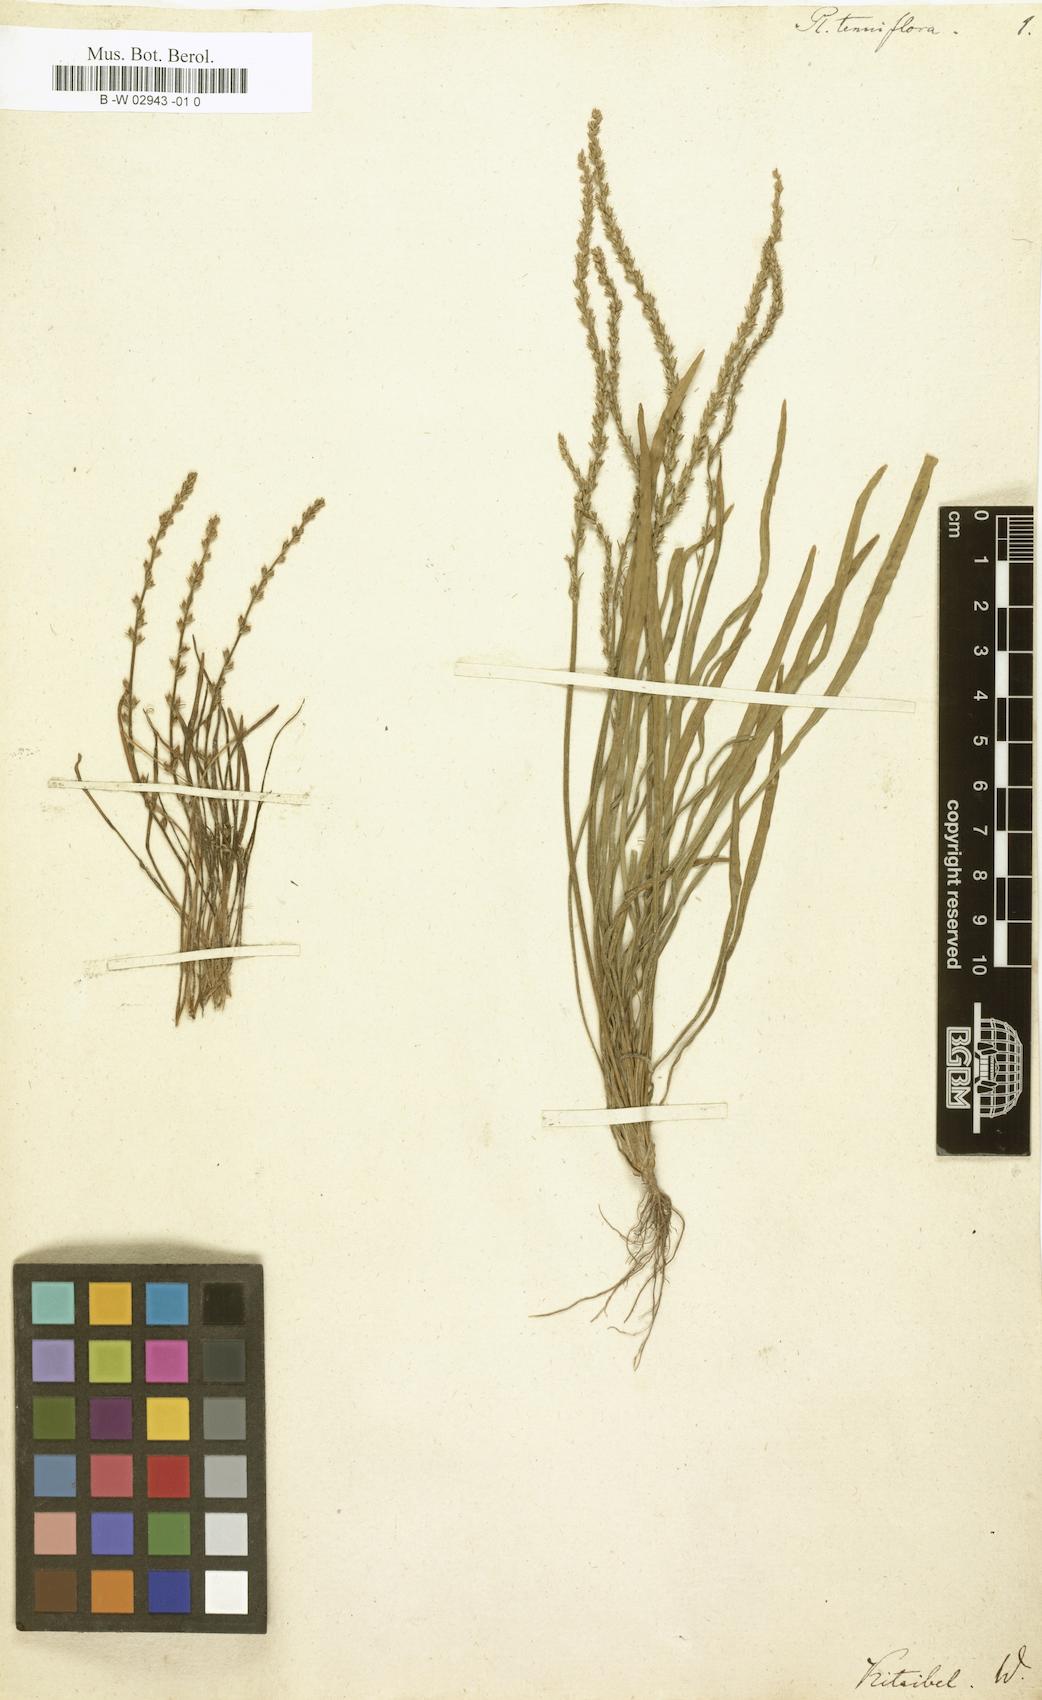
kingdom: Plantae
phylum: Tracheophyta
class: Magnoliopsida
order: Lamiales
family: Plantaginaceae
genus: Plantago
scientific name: Plantago tenuiflora
